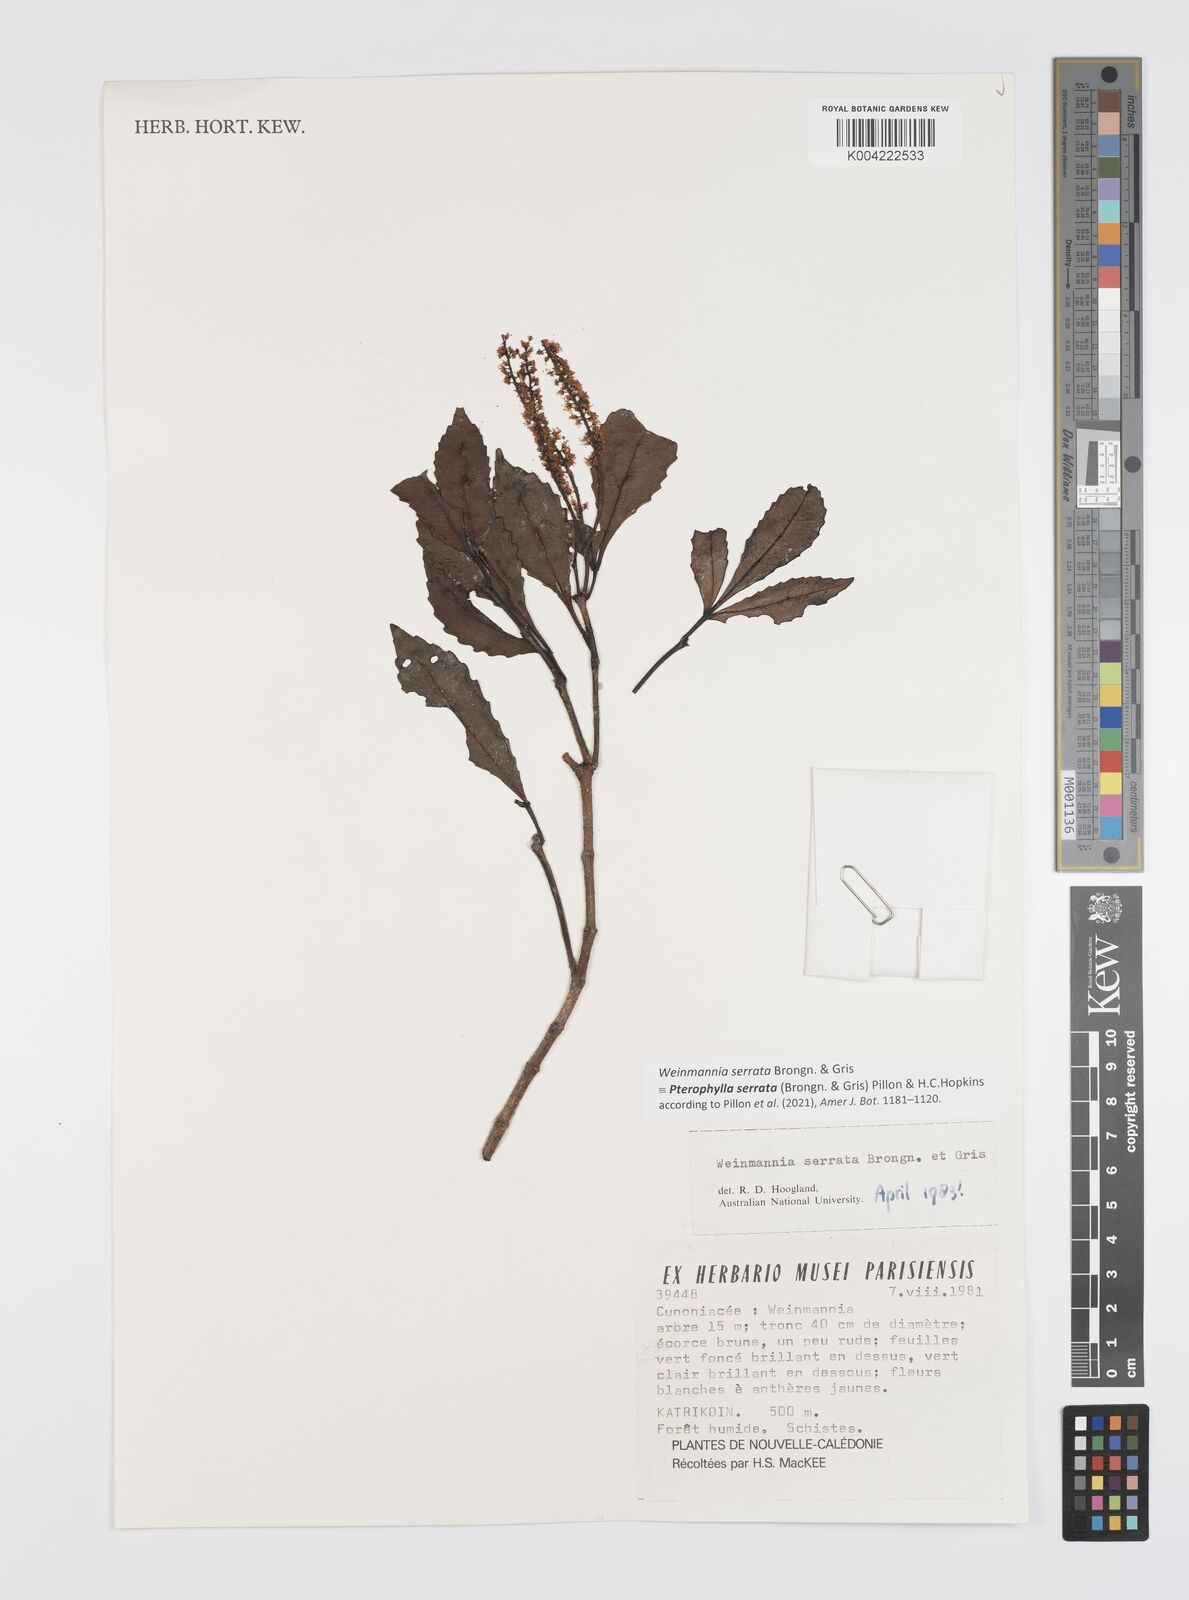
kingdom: Plantae
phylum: Tracheophyta
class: Magnoliopsida
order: Oxalidales
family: Cunoniaceae
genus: Pterophylla
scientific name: Pterophylla serrata
